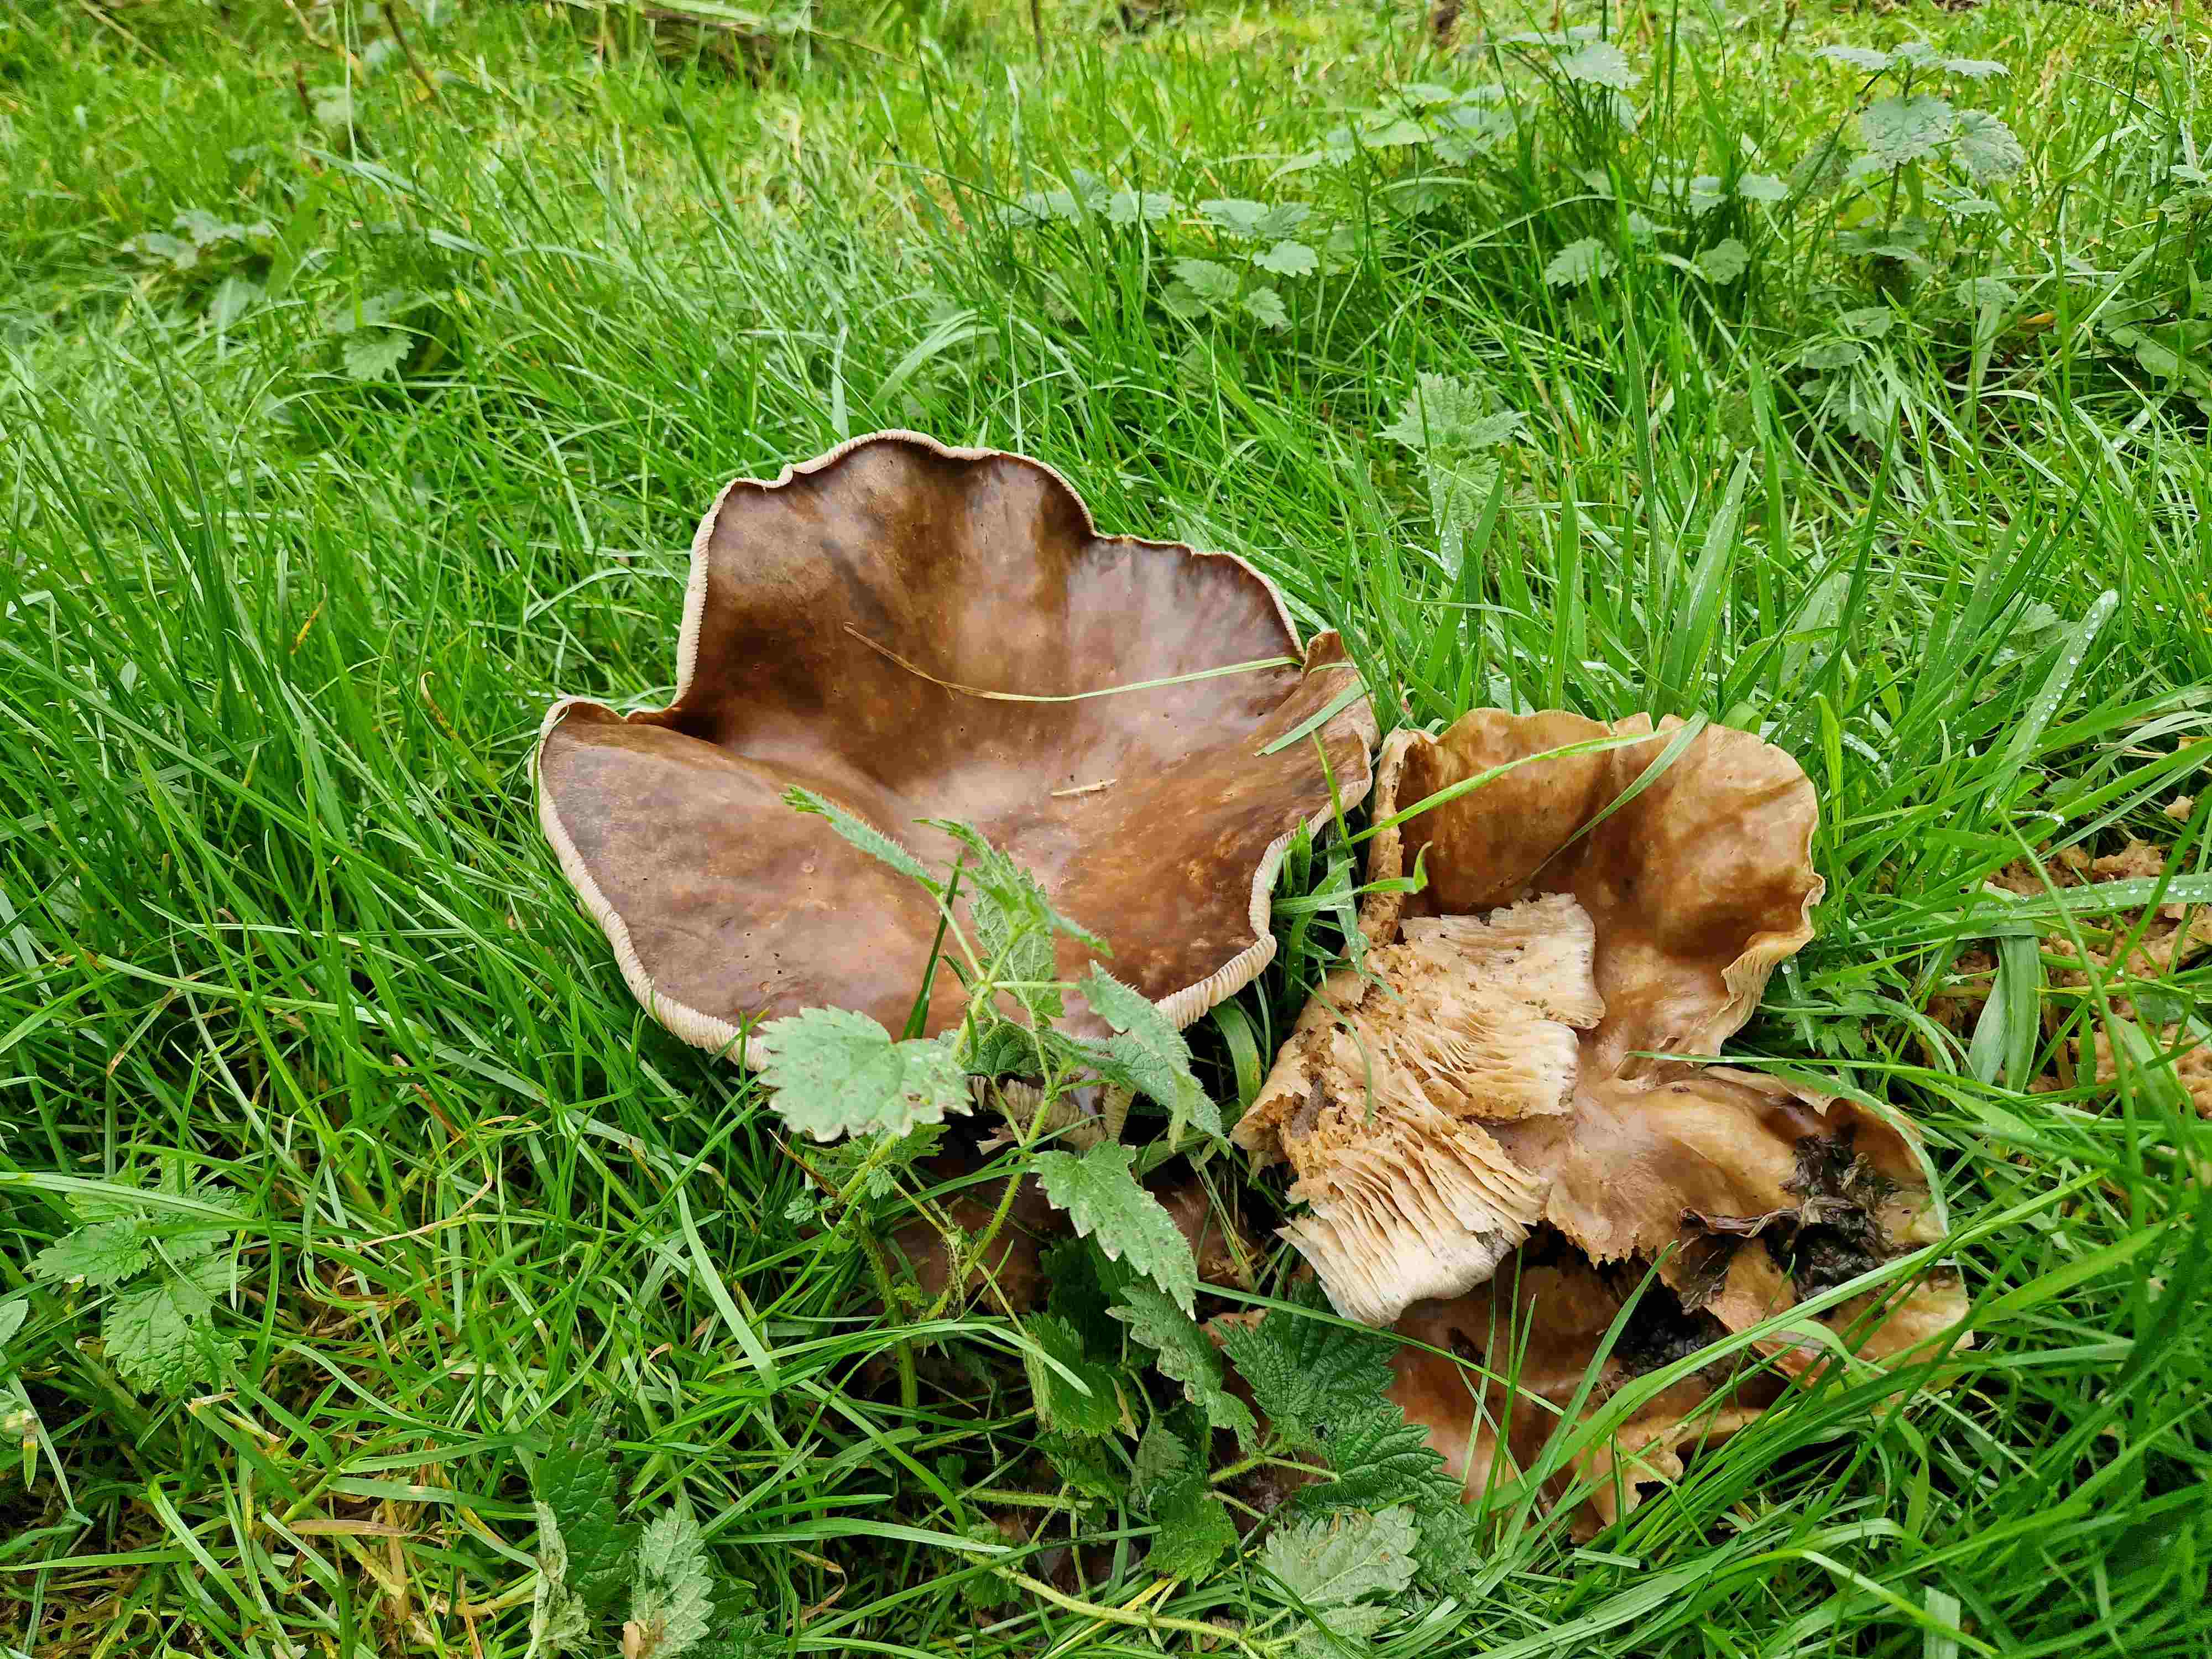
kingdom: Fungi
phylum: Basidiomycota
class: Agaricomycetes
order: Agaricales
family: Tubariaceae
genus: Cyclocybe
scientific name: Cyclocybe erebia
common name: mørk agerhat
